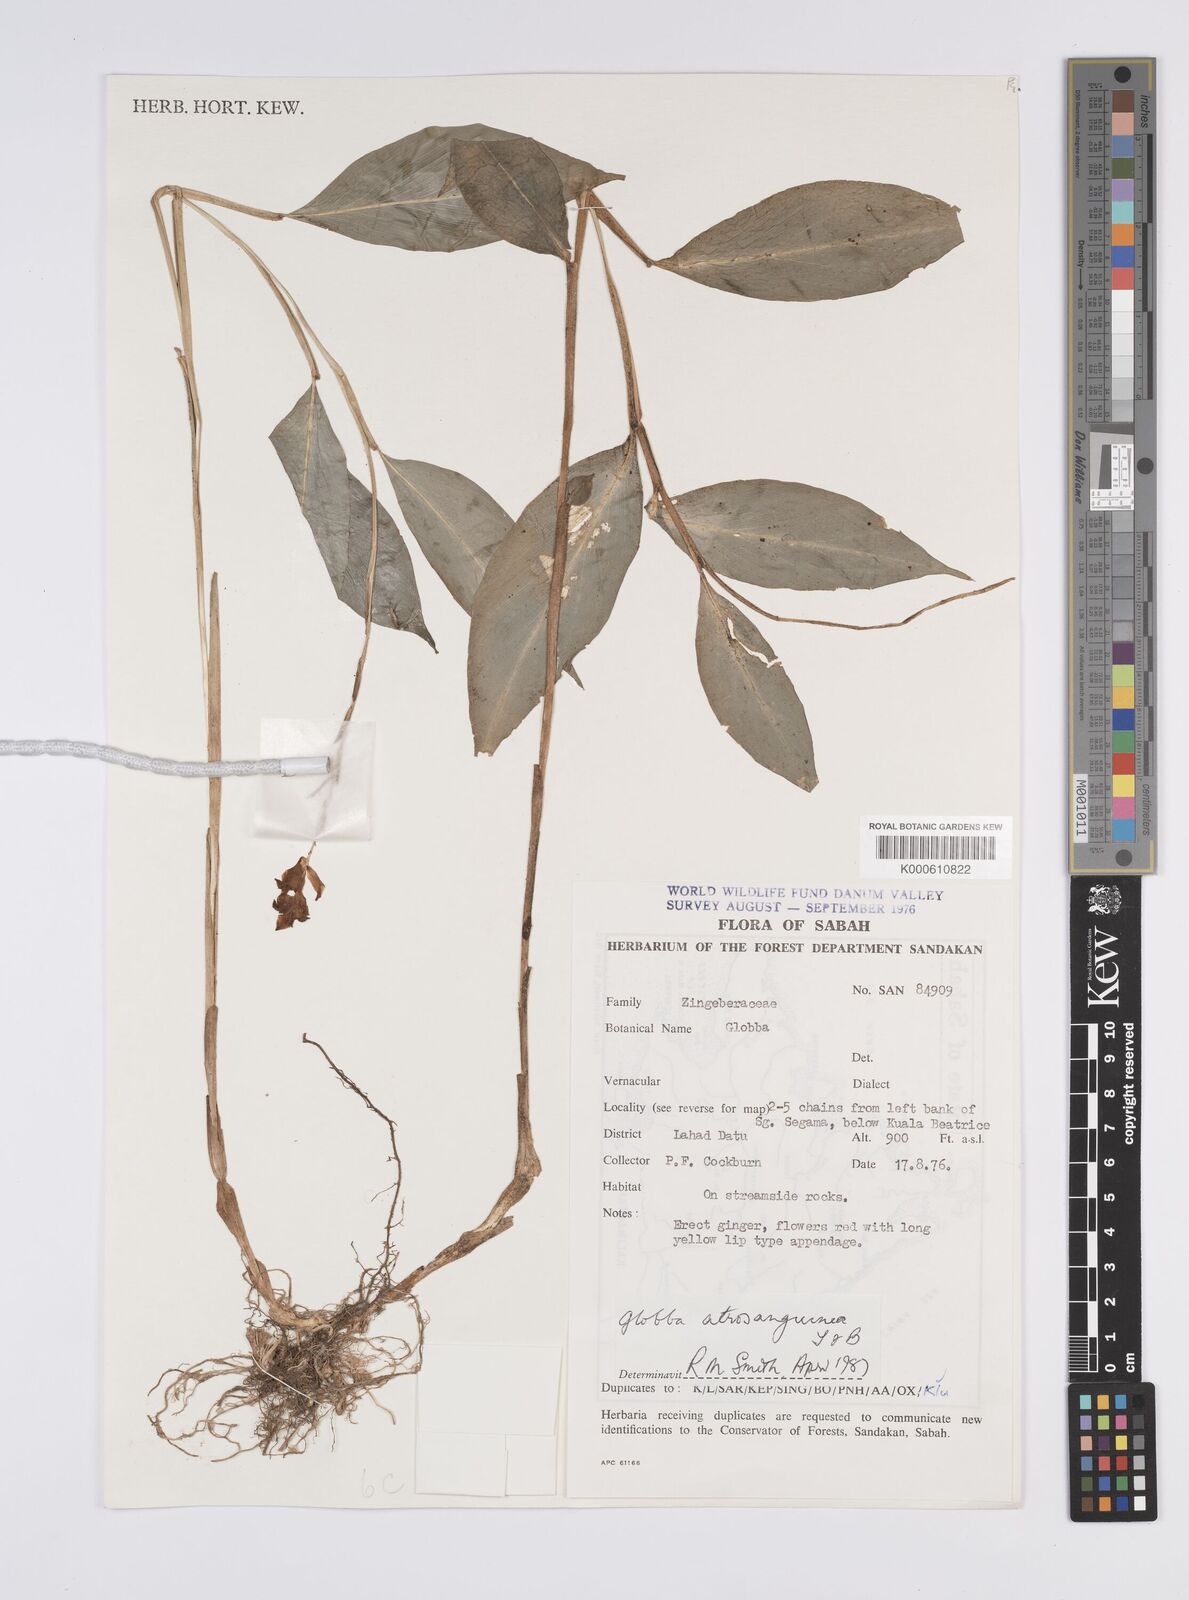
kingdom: Plantae
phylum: Tracheophyta
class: Liliopsida
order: Zingiberales
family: Zingiberaceae
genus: Globba
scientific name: Globba atrosanguinea
